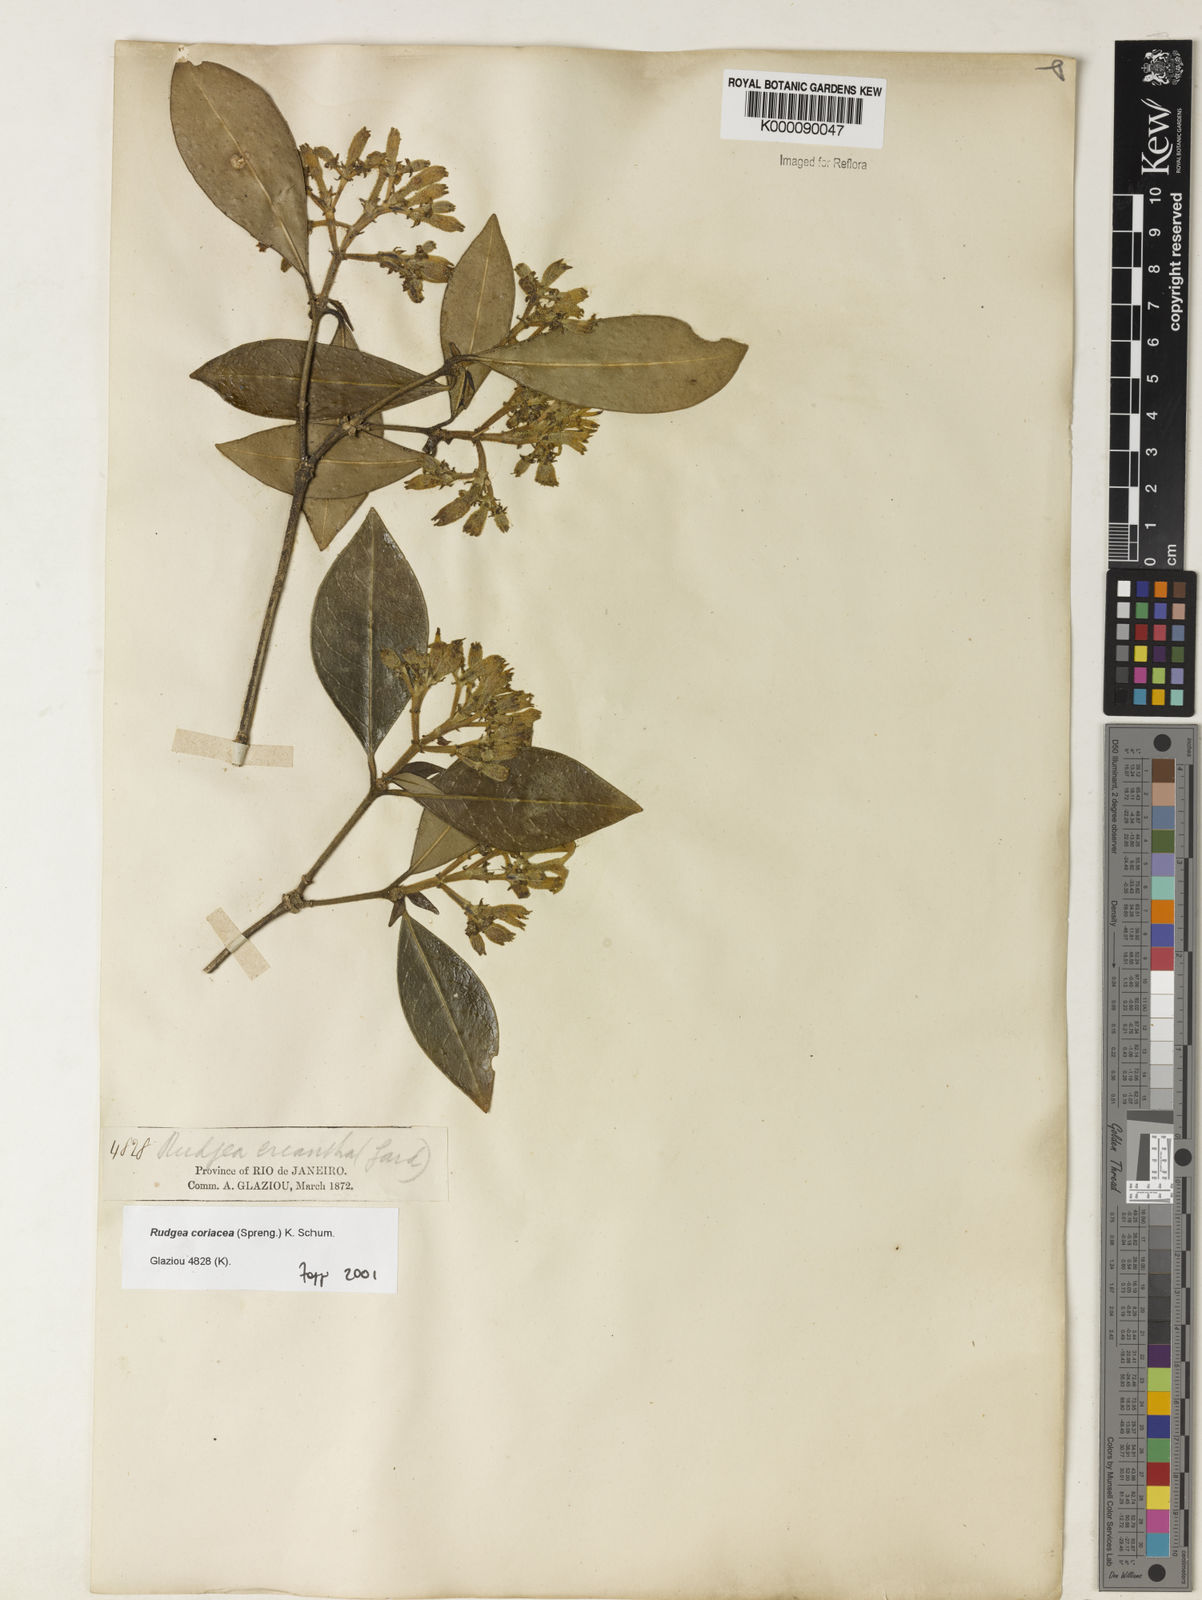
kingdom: Plantae
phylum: Tracheophyta
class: Magnoliopsida
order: Gentianales
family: Rubiaceae
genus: Rudgea
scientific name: Rudgea coriacea
